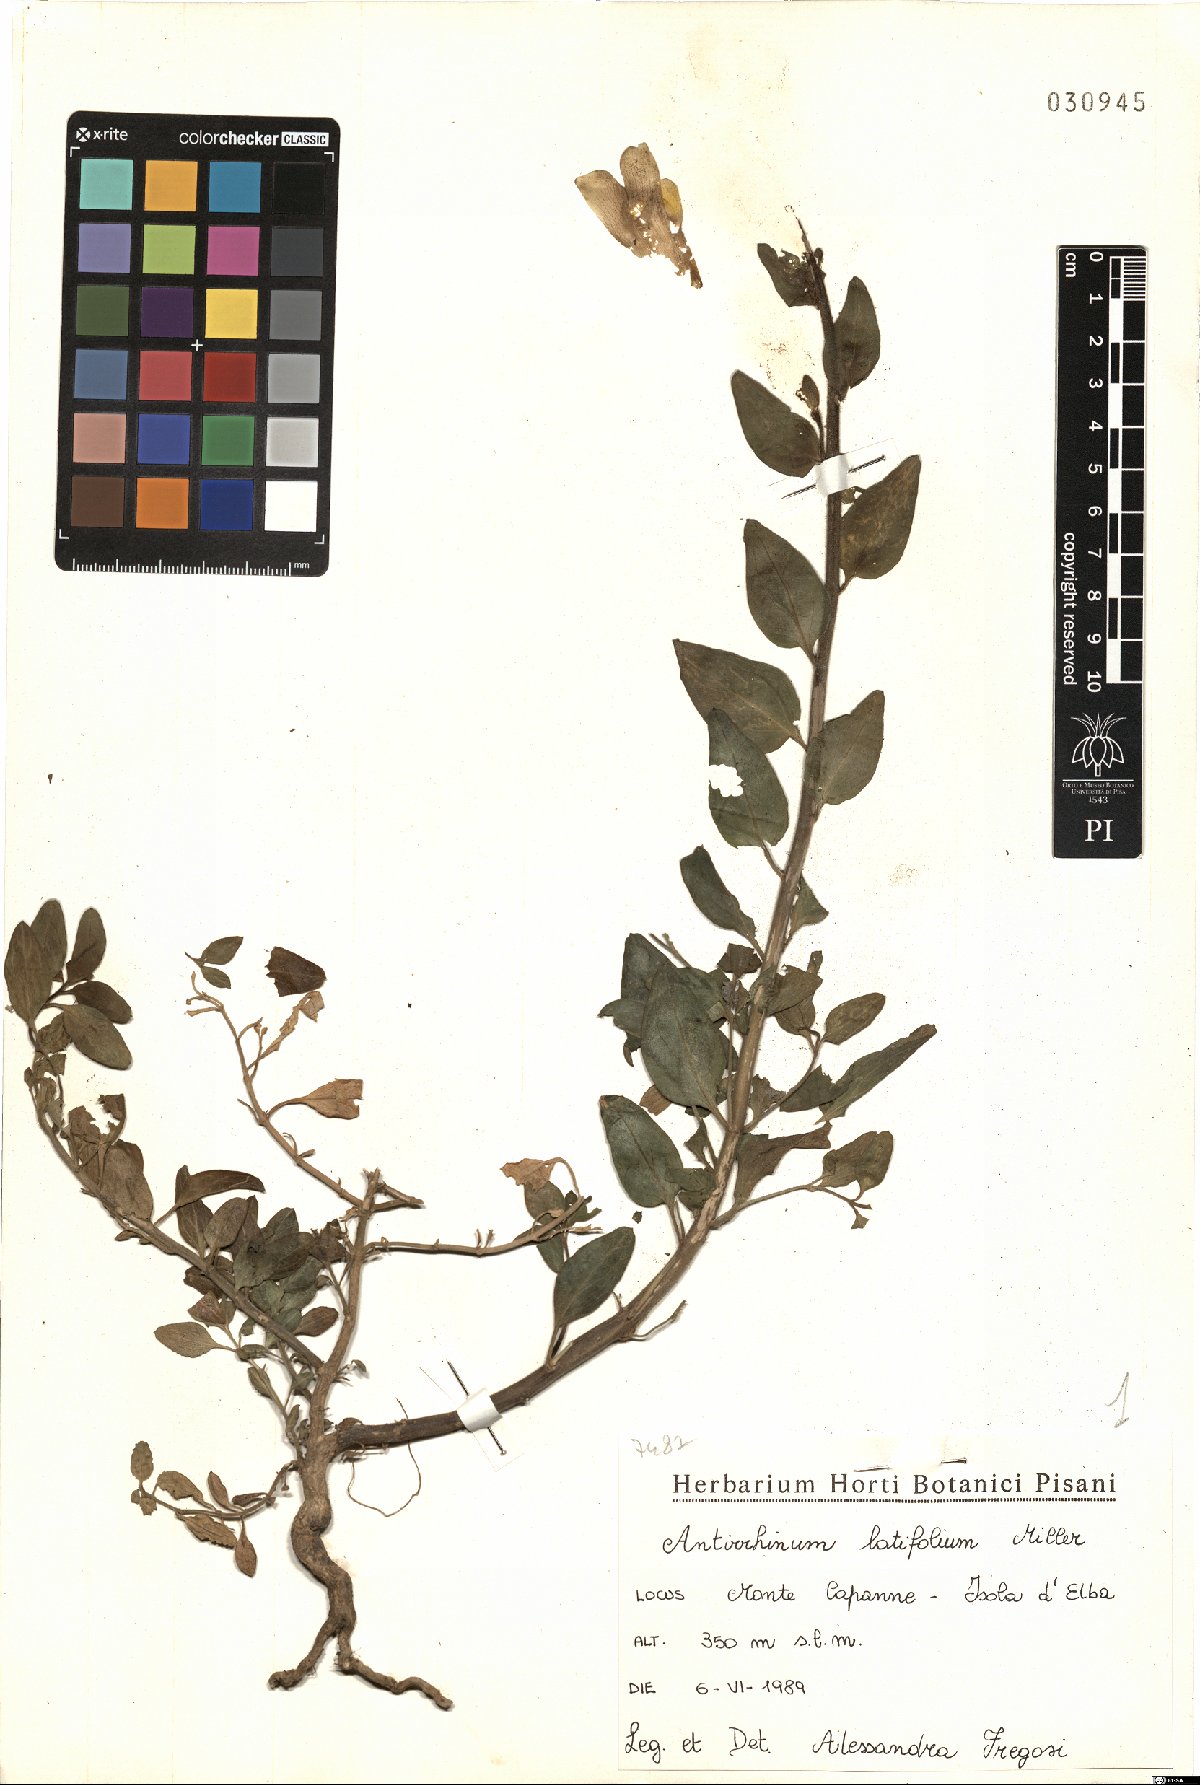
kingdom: Plantae
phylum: Tracheophyta
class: Magnoliopsida
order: Lamiales
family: Plantaginaceae
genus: Antirrhinum
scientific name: Antirrhinum latifolium
